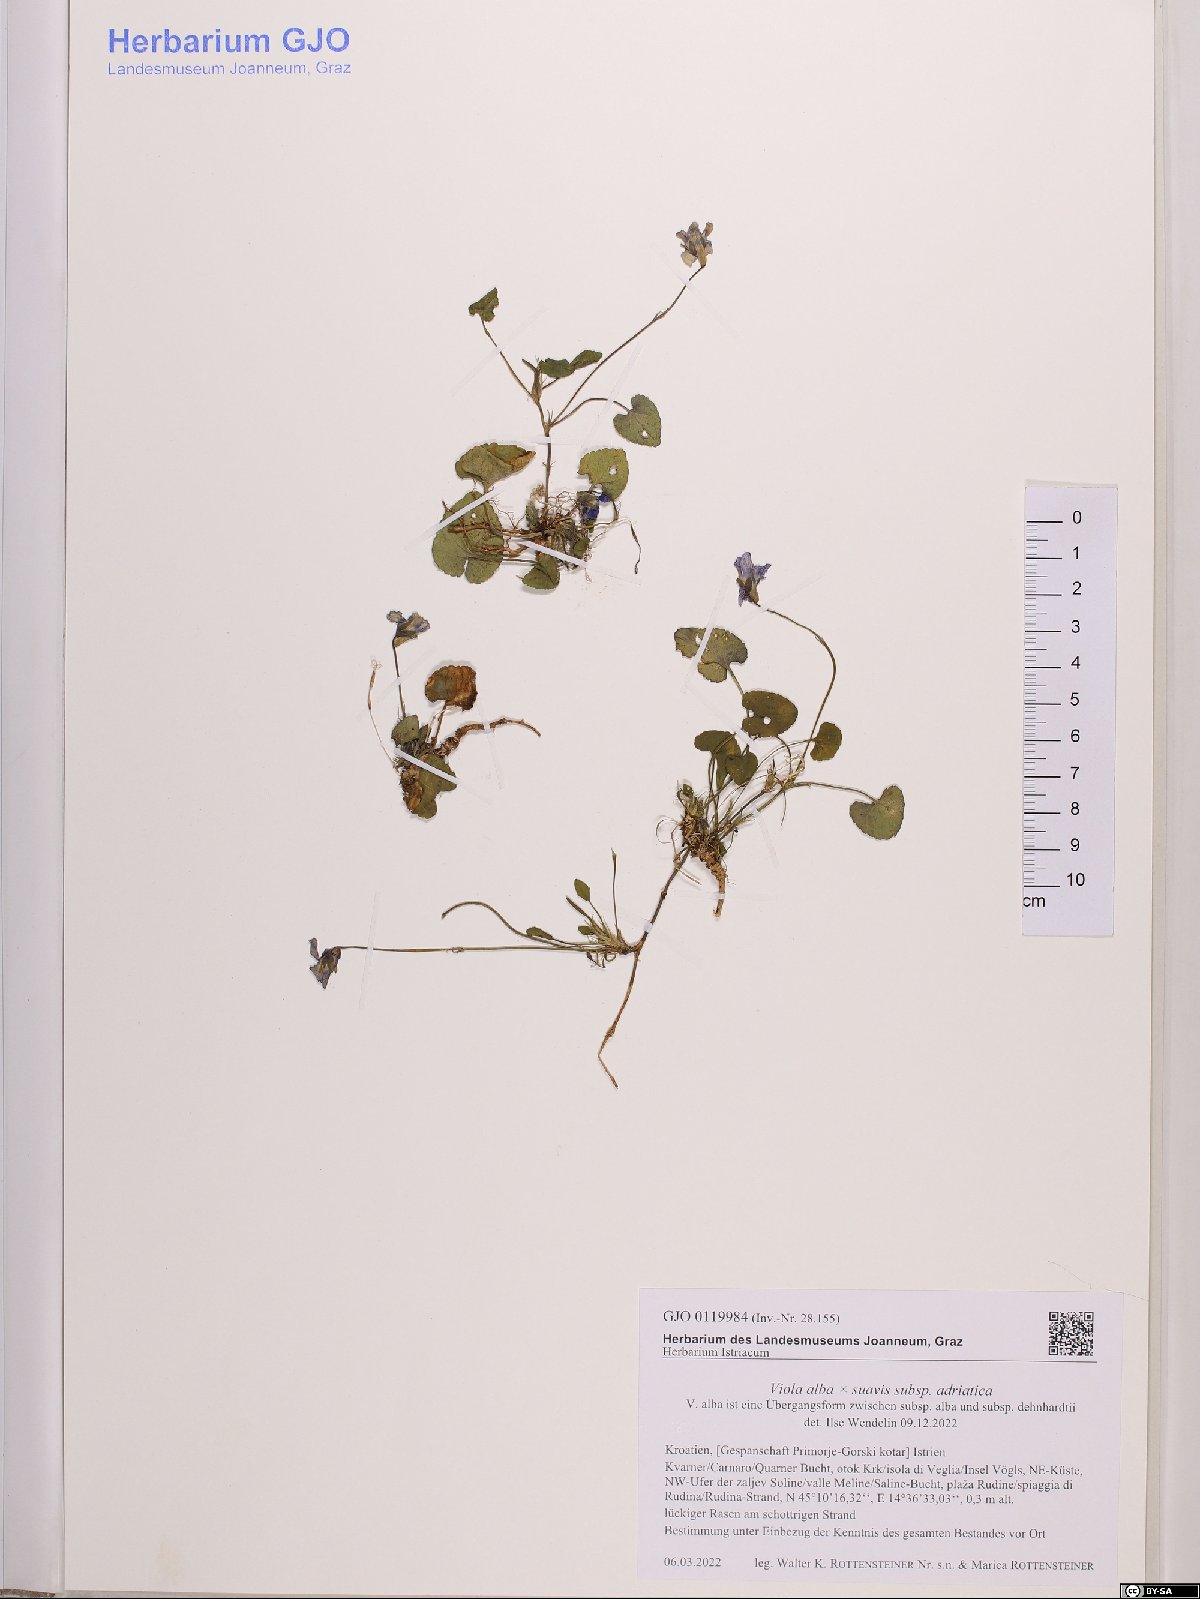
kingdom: Plantae
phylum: Tracheophyta
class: Magnoliopsida
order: Malpighiales
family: Violaceae
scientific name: Violaceae
